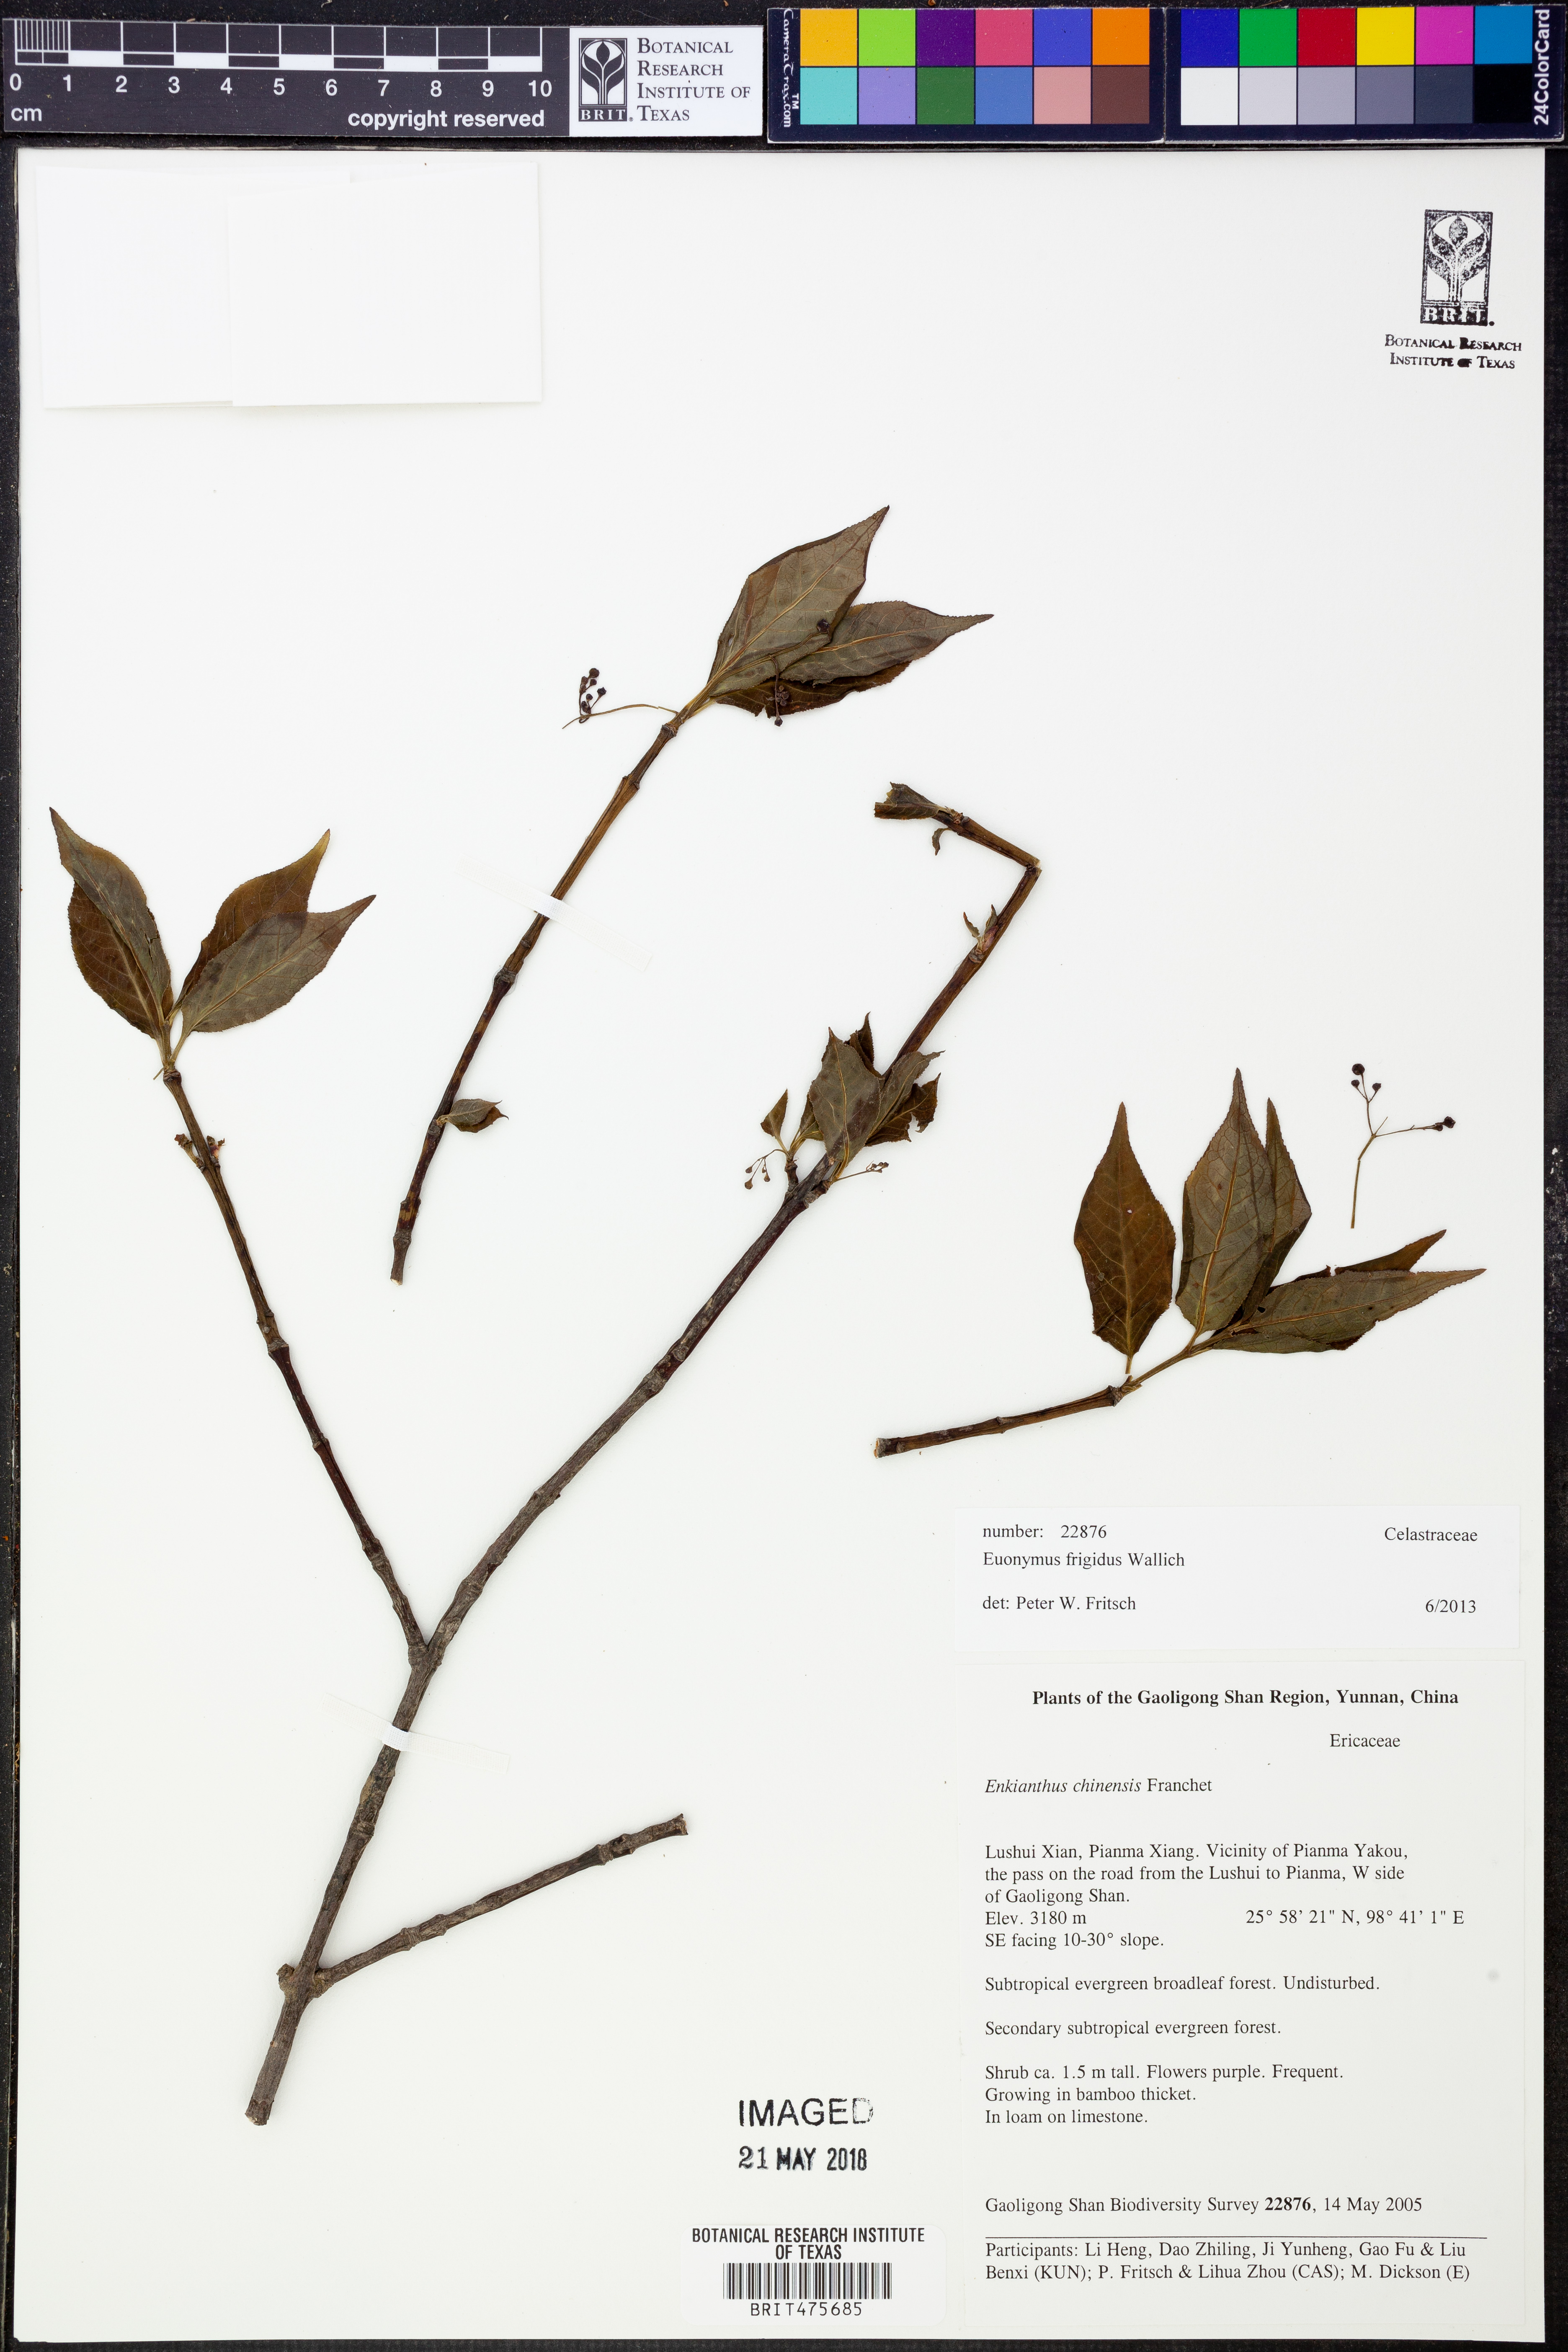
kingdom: Plantae
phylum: Tracheophyta
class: Magnoliopsida
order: Celastrales
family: Celastraceae
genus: Euonymus
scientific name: Euonymus frigidus
